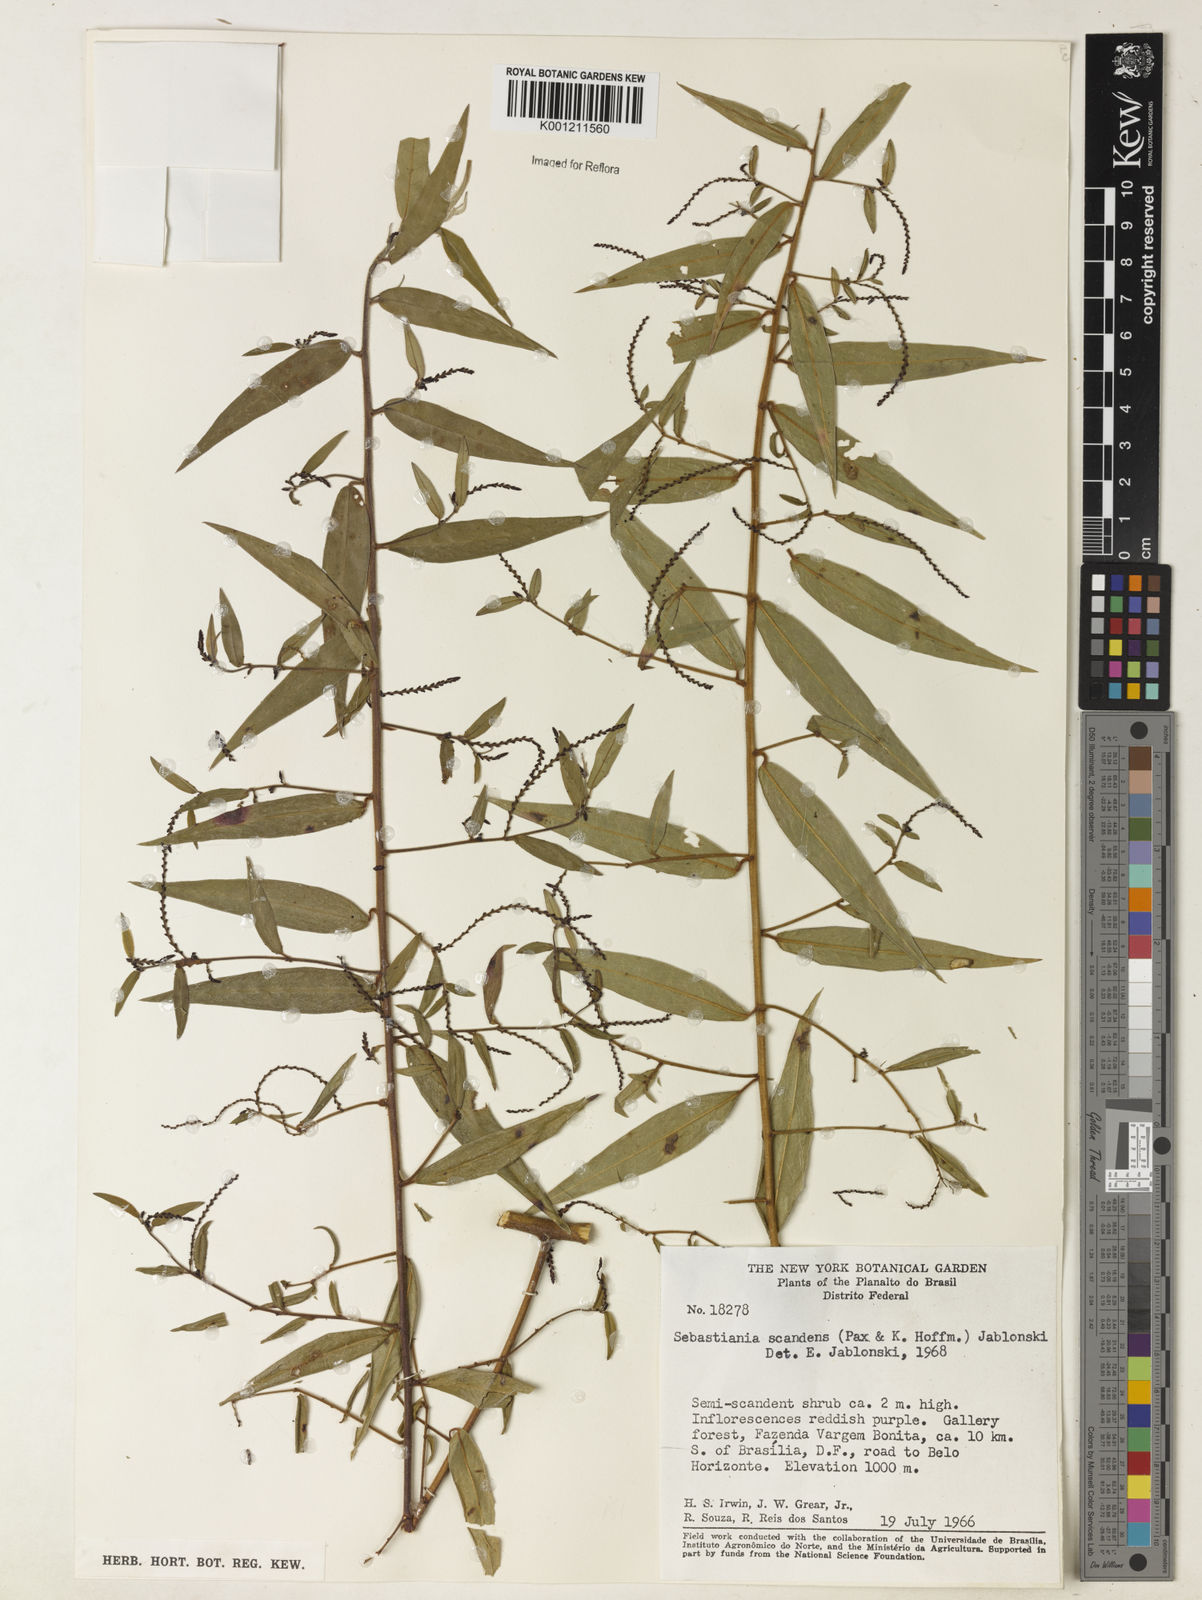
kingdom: Plantae
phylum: Tracheophyta
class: Magnoliopsida
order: Malpighiales
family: Euphorbiaceae
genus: Microstachys
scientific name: Microstachys hispida
